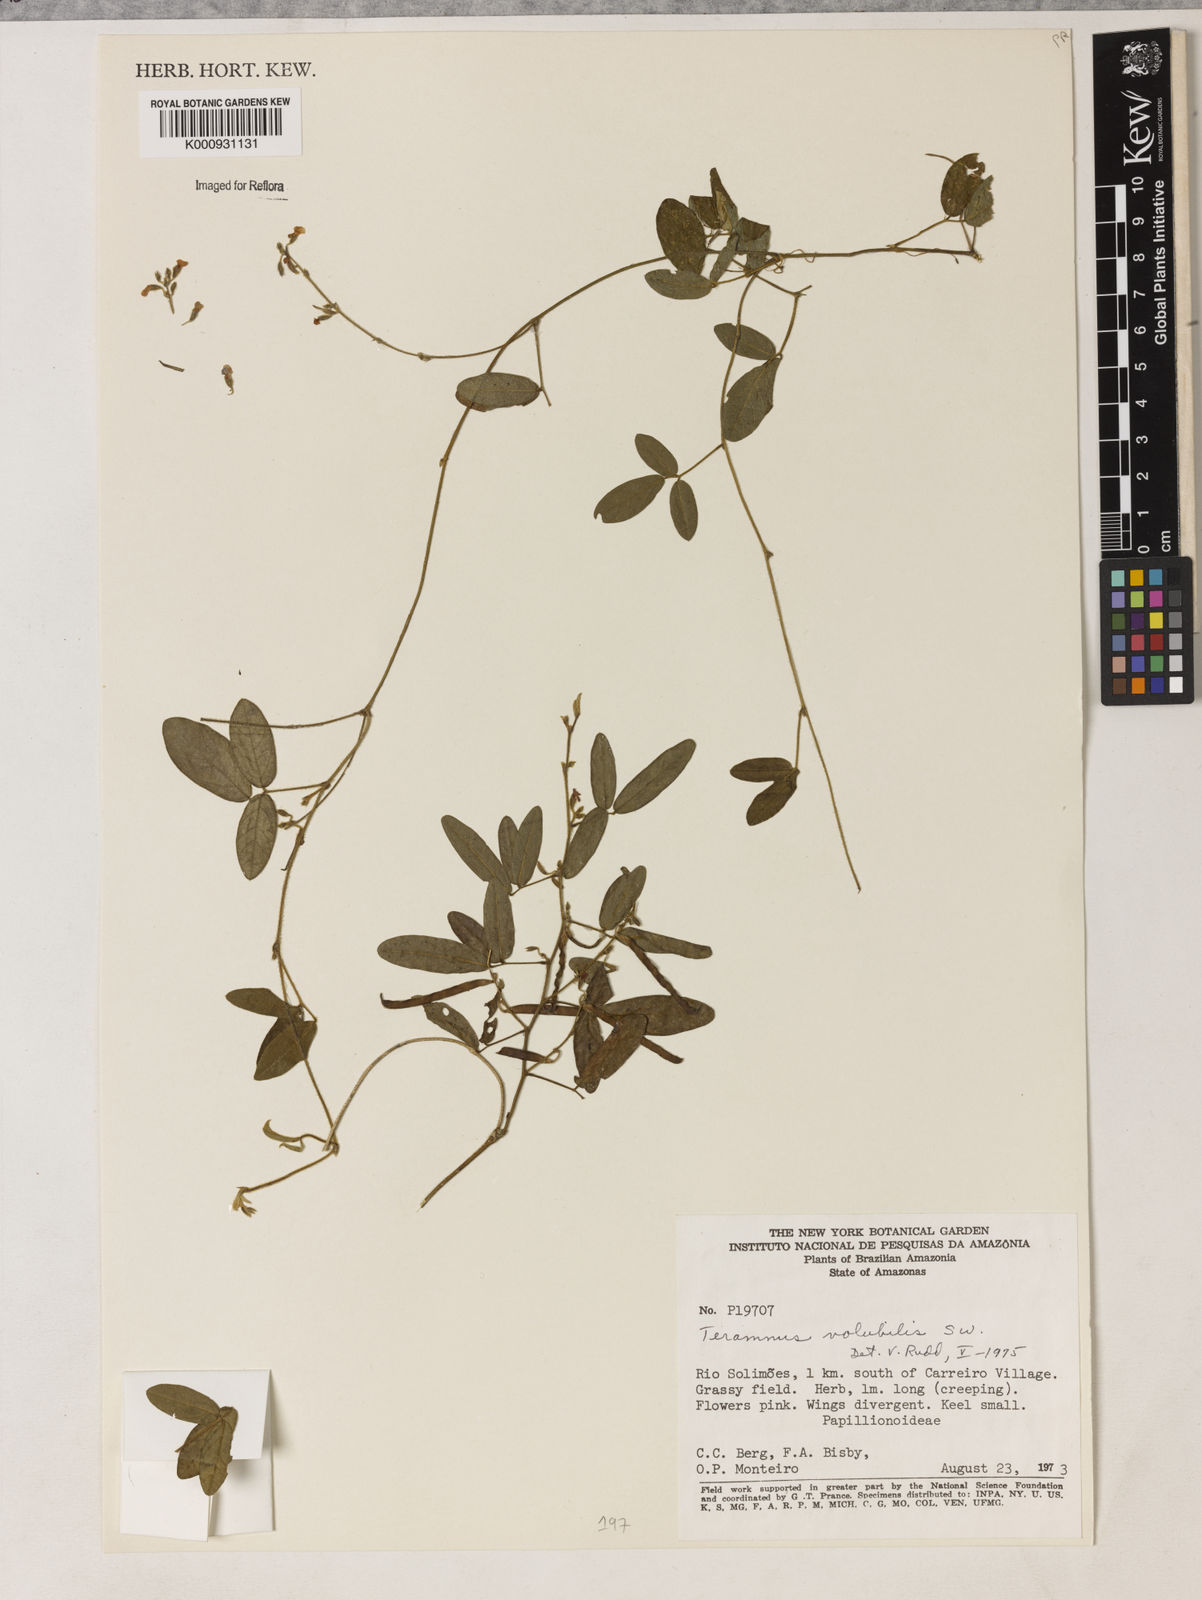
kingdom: Plantae
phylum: Tracheophyta
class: Magnoliopsida
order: Fabales
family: Fabaceae
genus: Teramnus
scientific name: Teramnus
